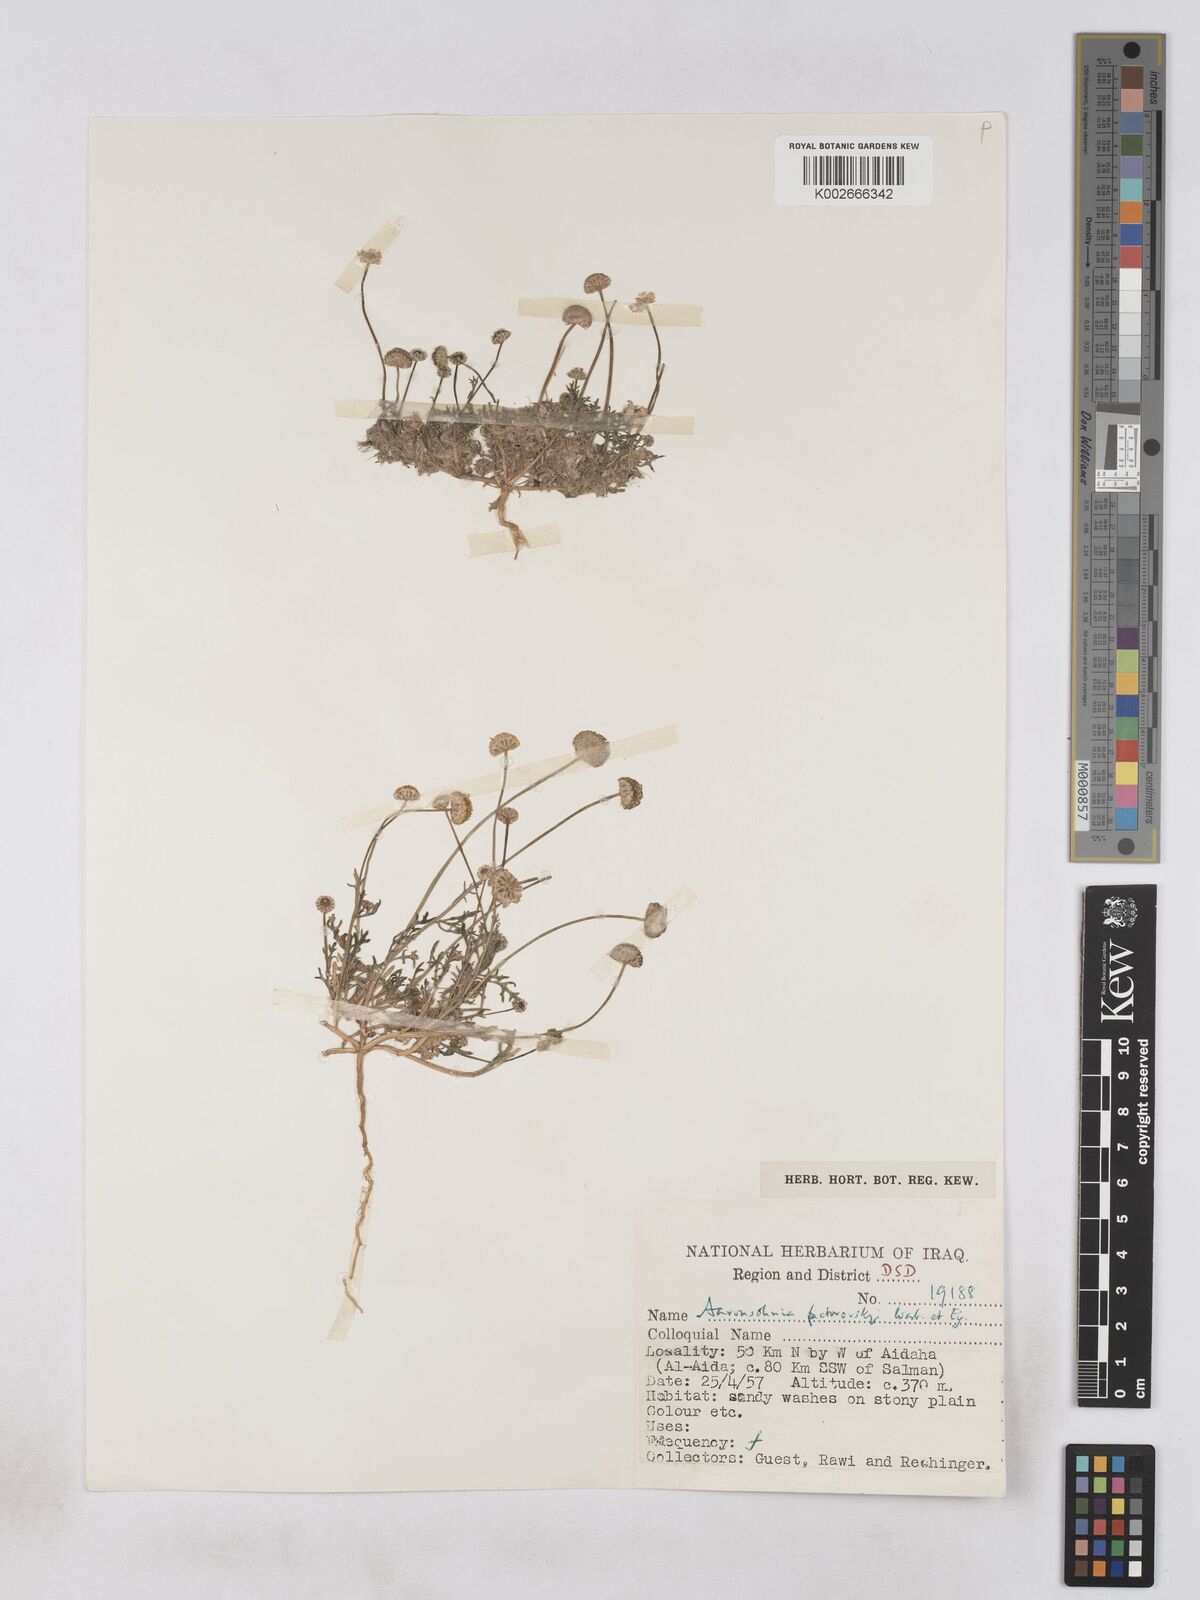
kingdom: Plantae
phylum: Tracheophyta
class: Magnoliopsida
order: Asterales
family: Asteraceae
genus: Otoglyphis
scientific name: Otoglyphis factorovskyi
